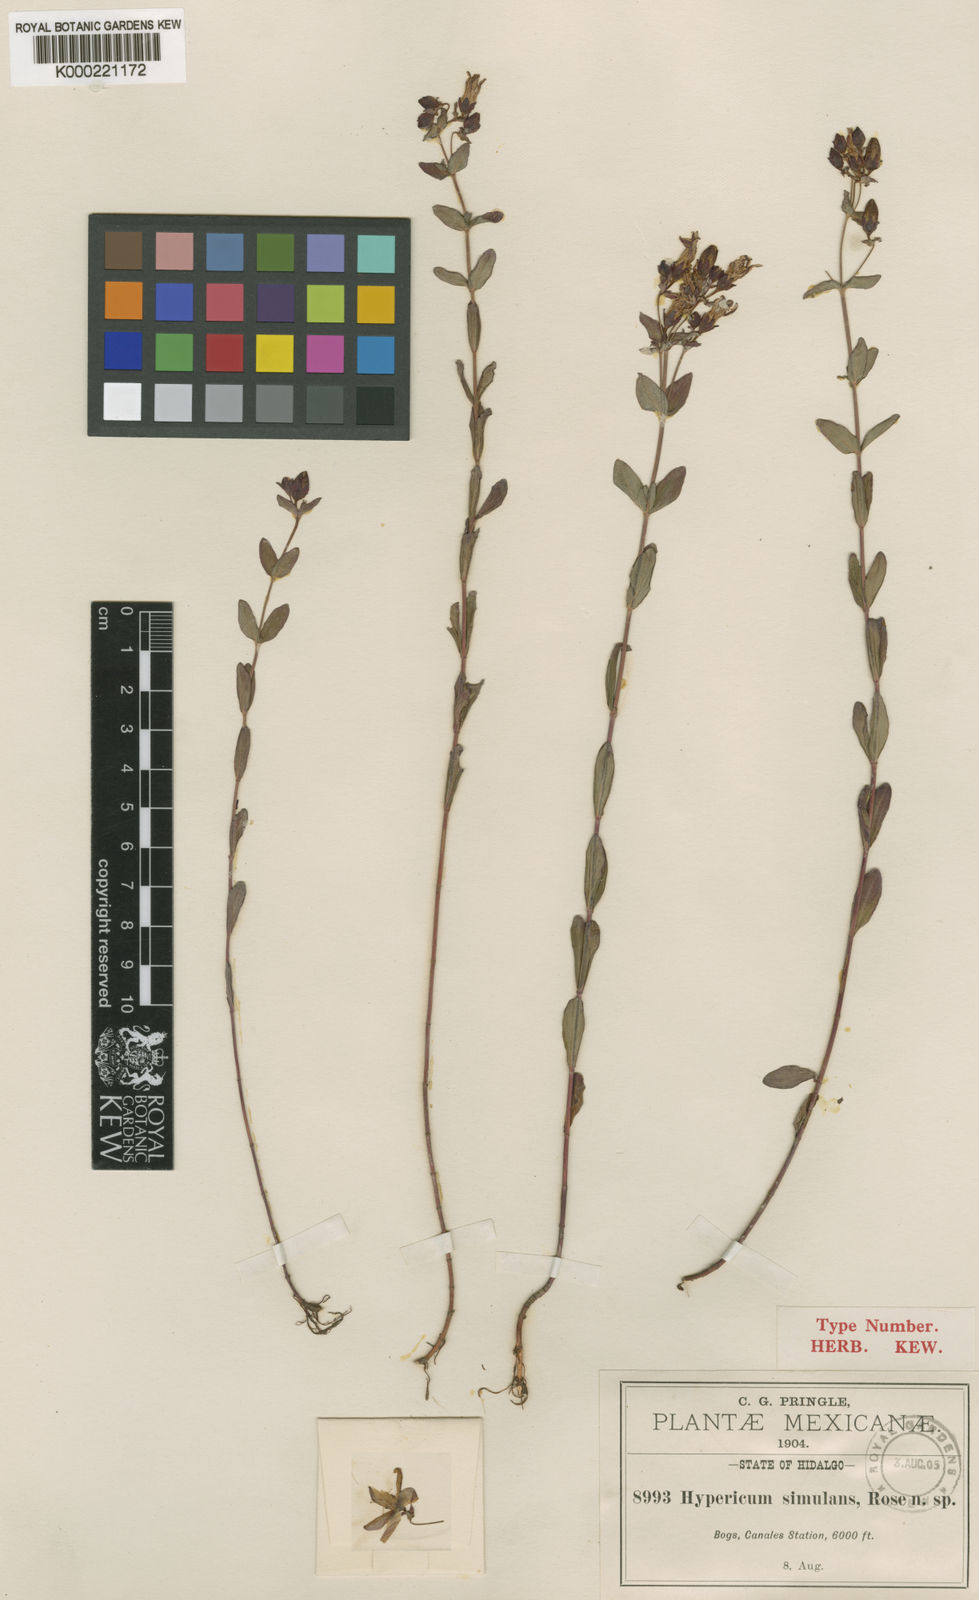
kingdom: Plantae
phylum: Tracheophyta
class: Magnoliopsida
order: Malpighiales
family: Hypericaceae
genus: Hypericum
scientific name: Hypericum scouleri
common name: Scouler's st. john's-wort
